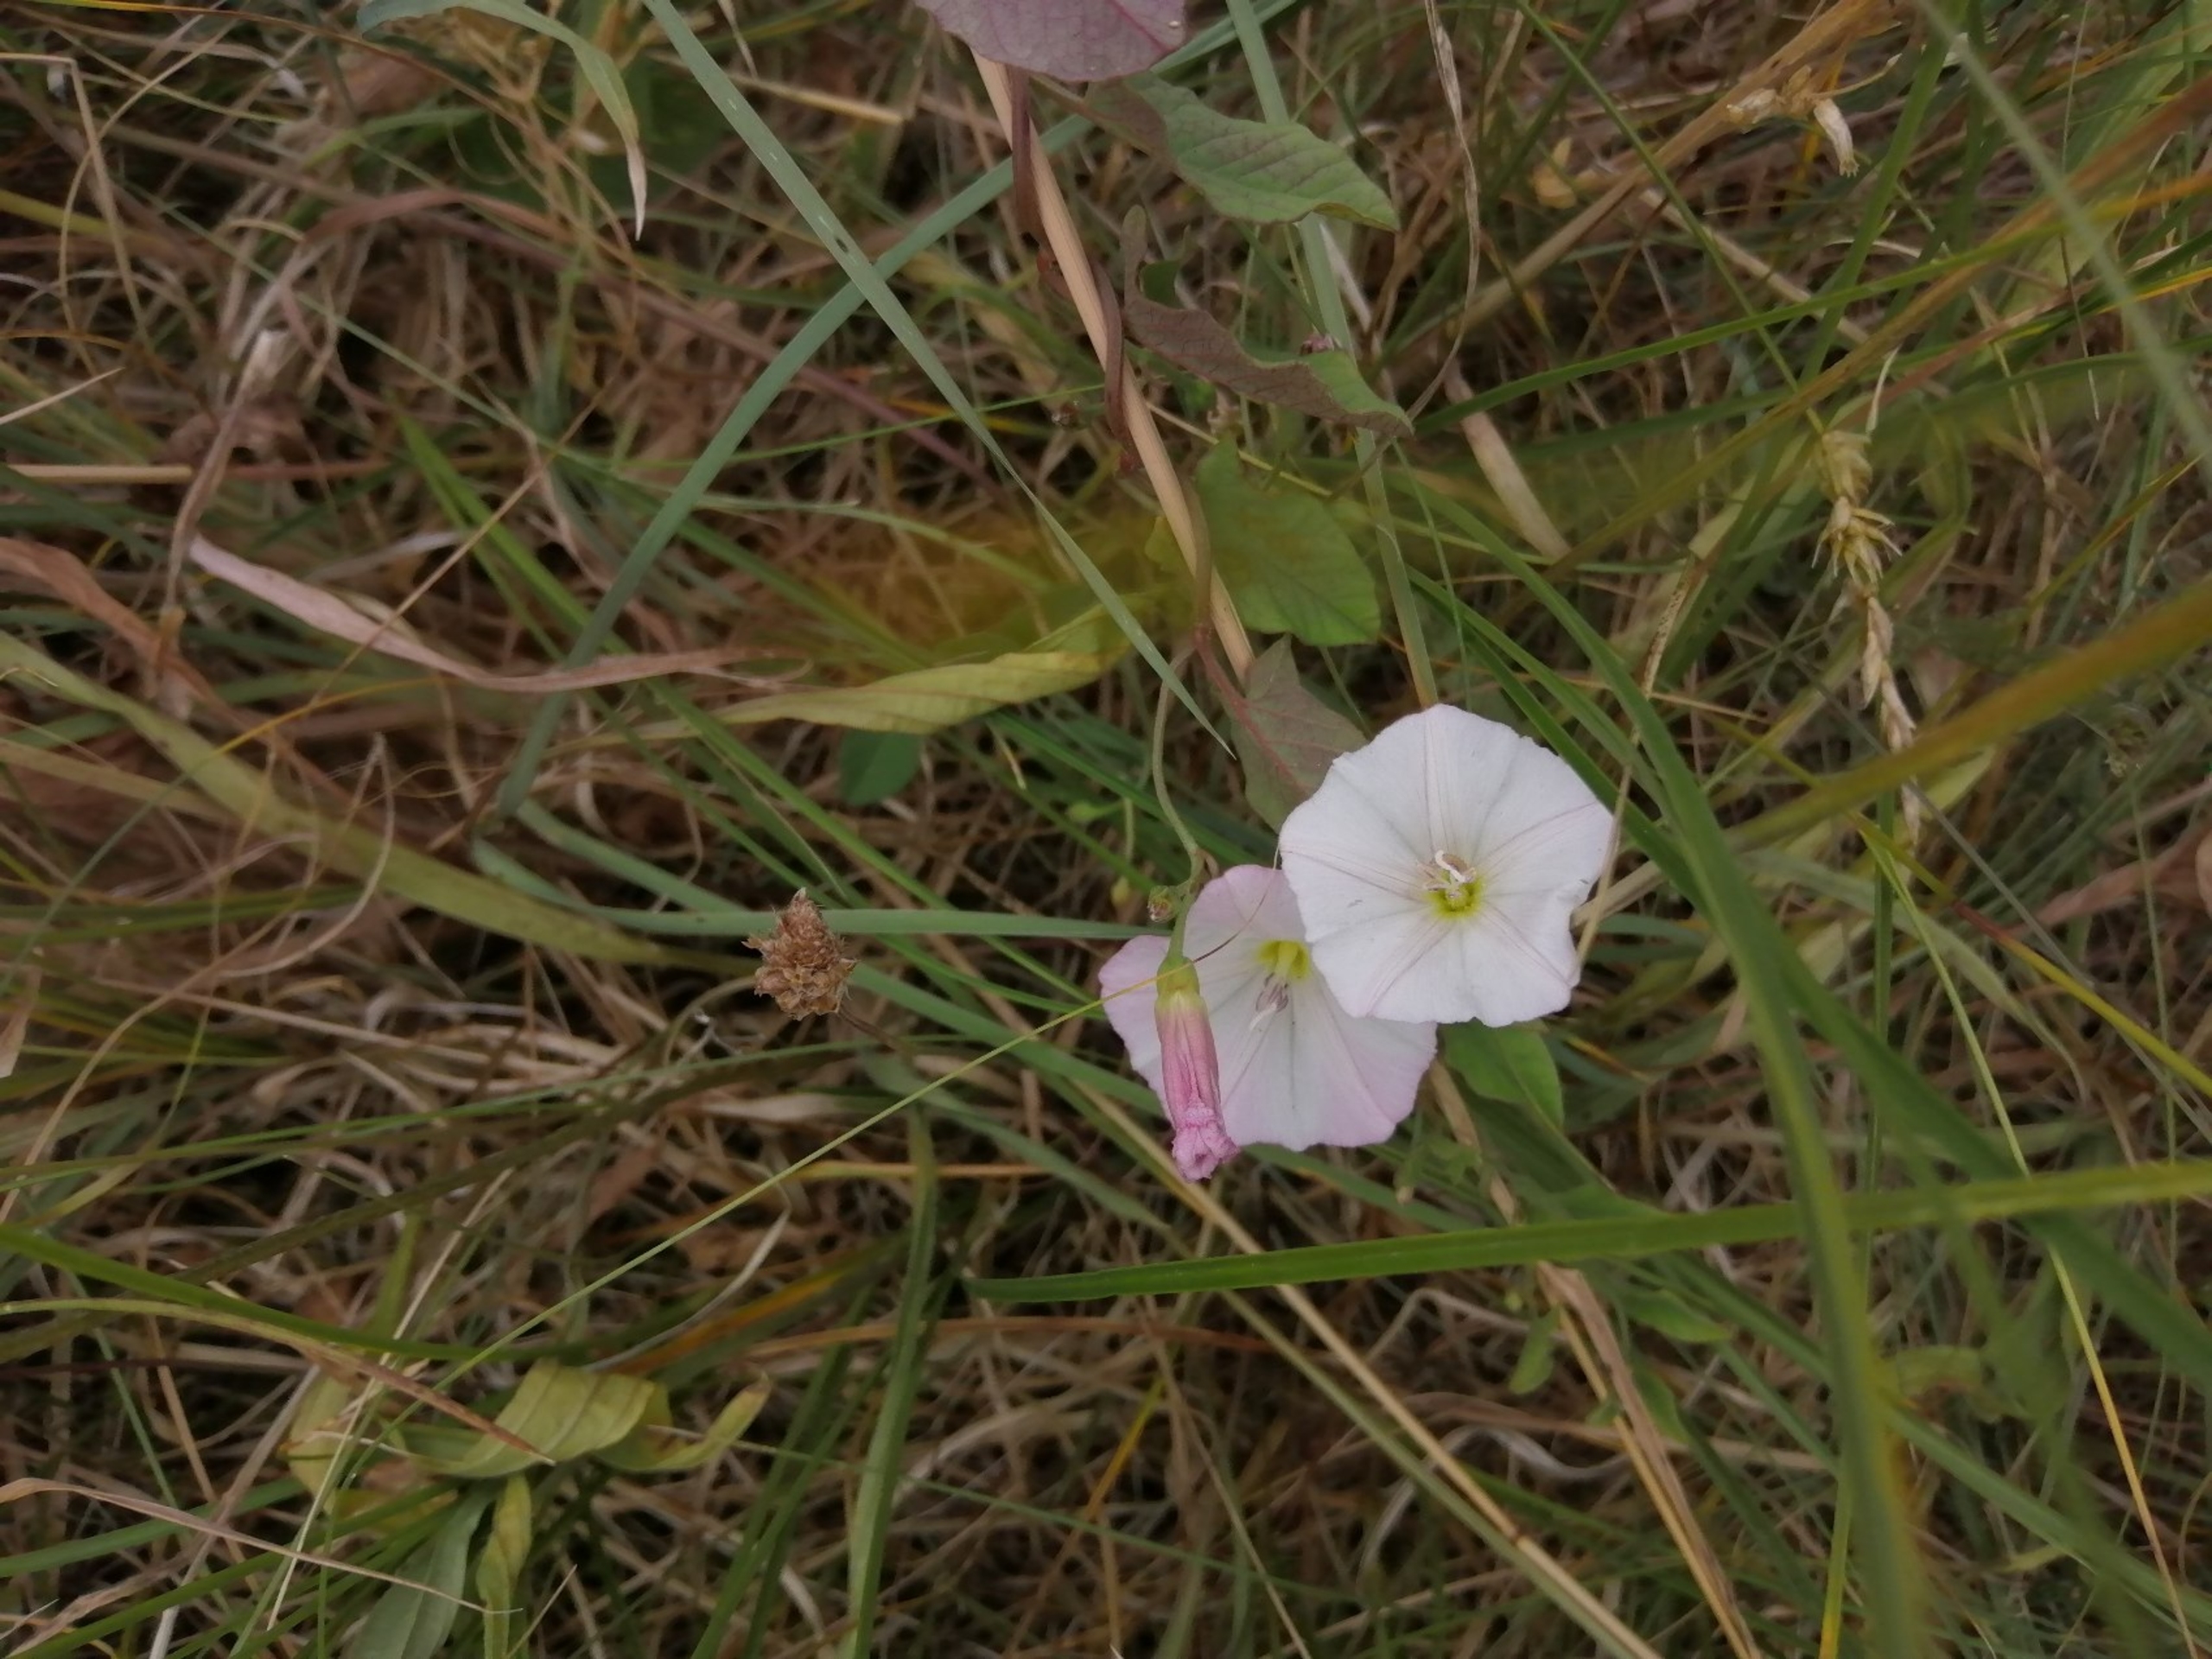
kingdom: Plantae
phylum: Tracheophyta
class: Magnoliopsida
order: Solanales
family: Convolvulaceae
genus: Convolvulus
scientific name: Convolvulus arvensis
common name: Ager-snerle
